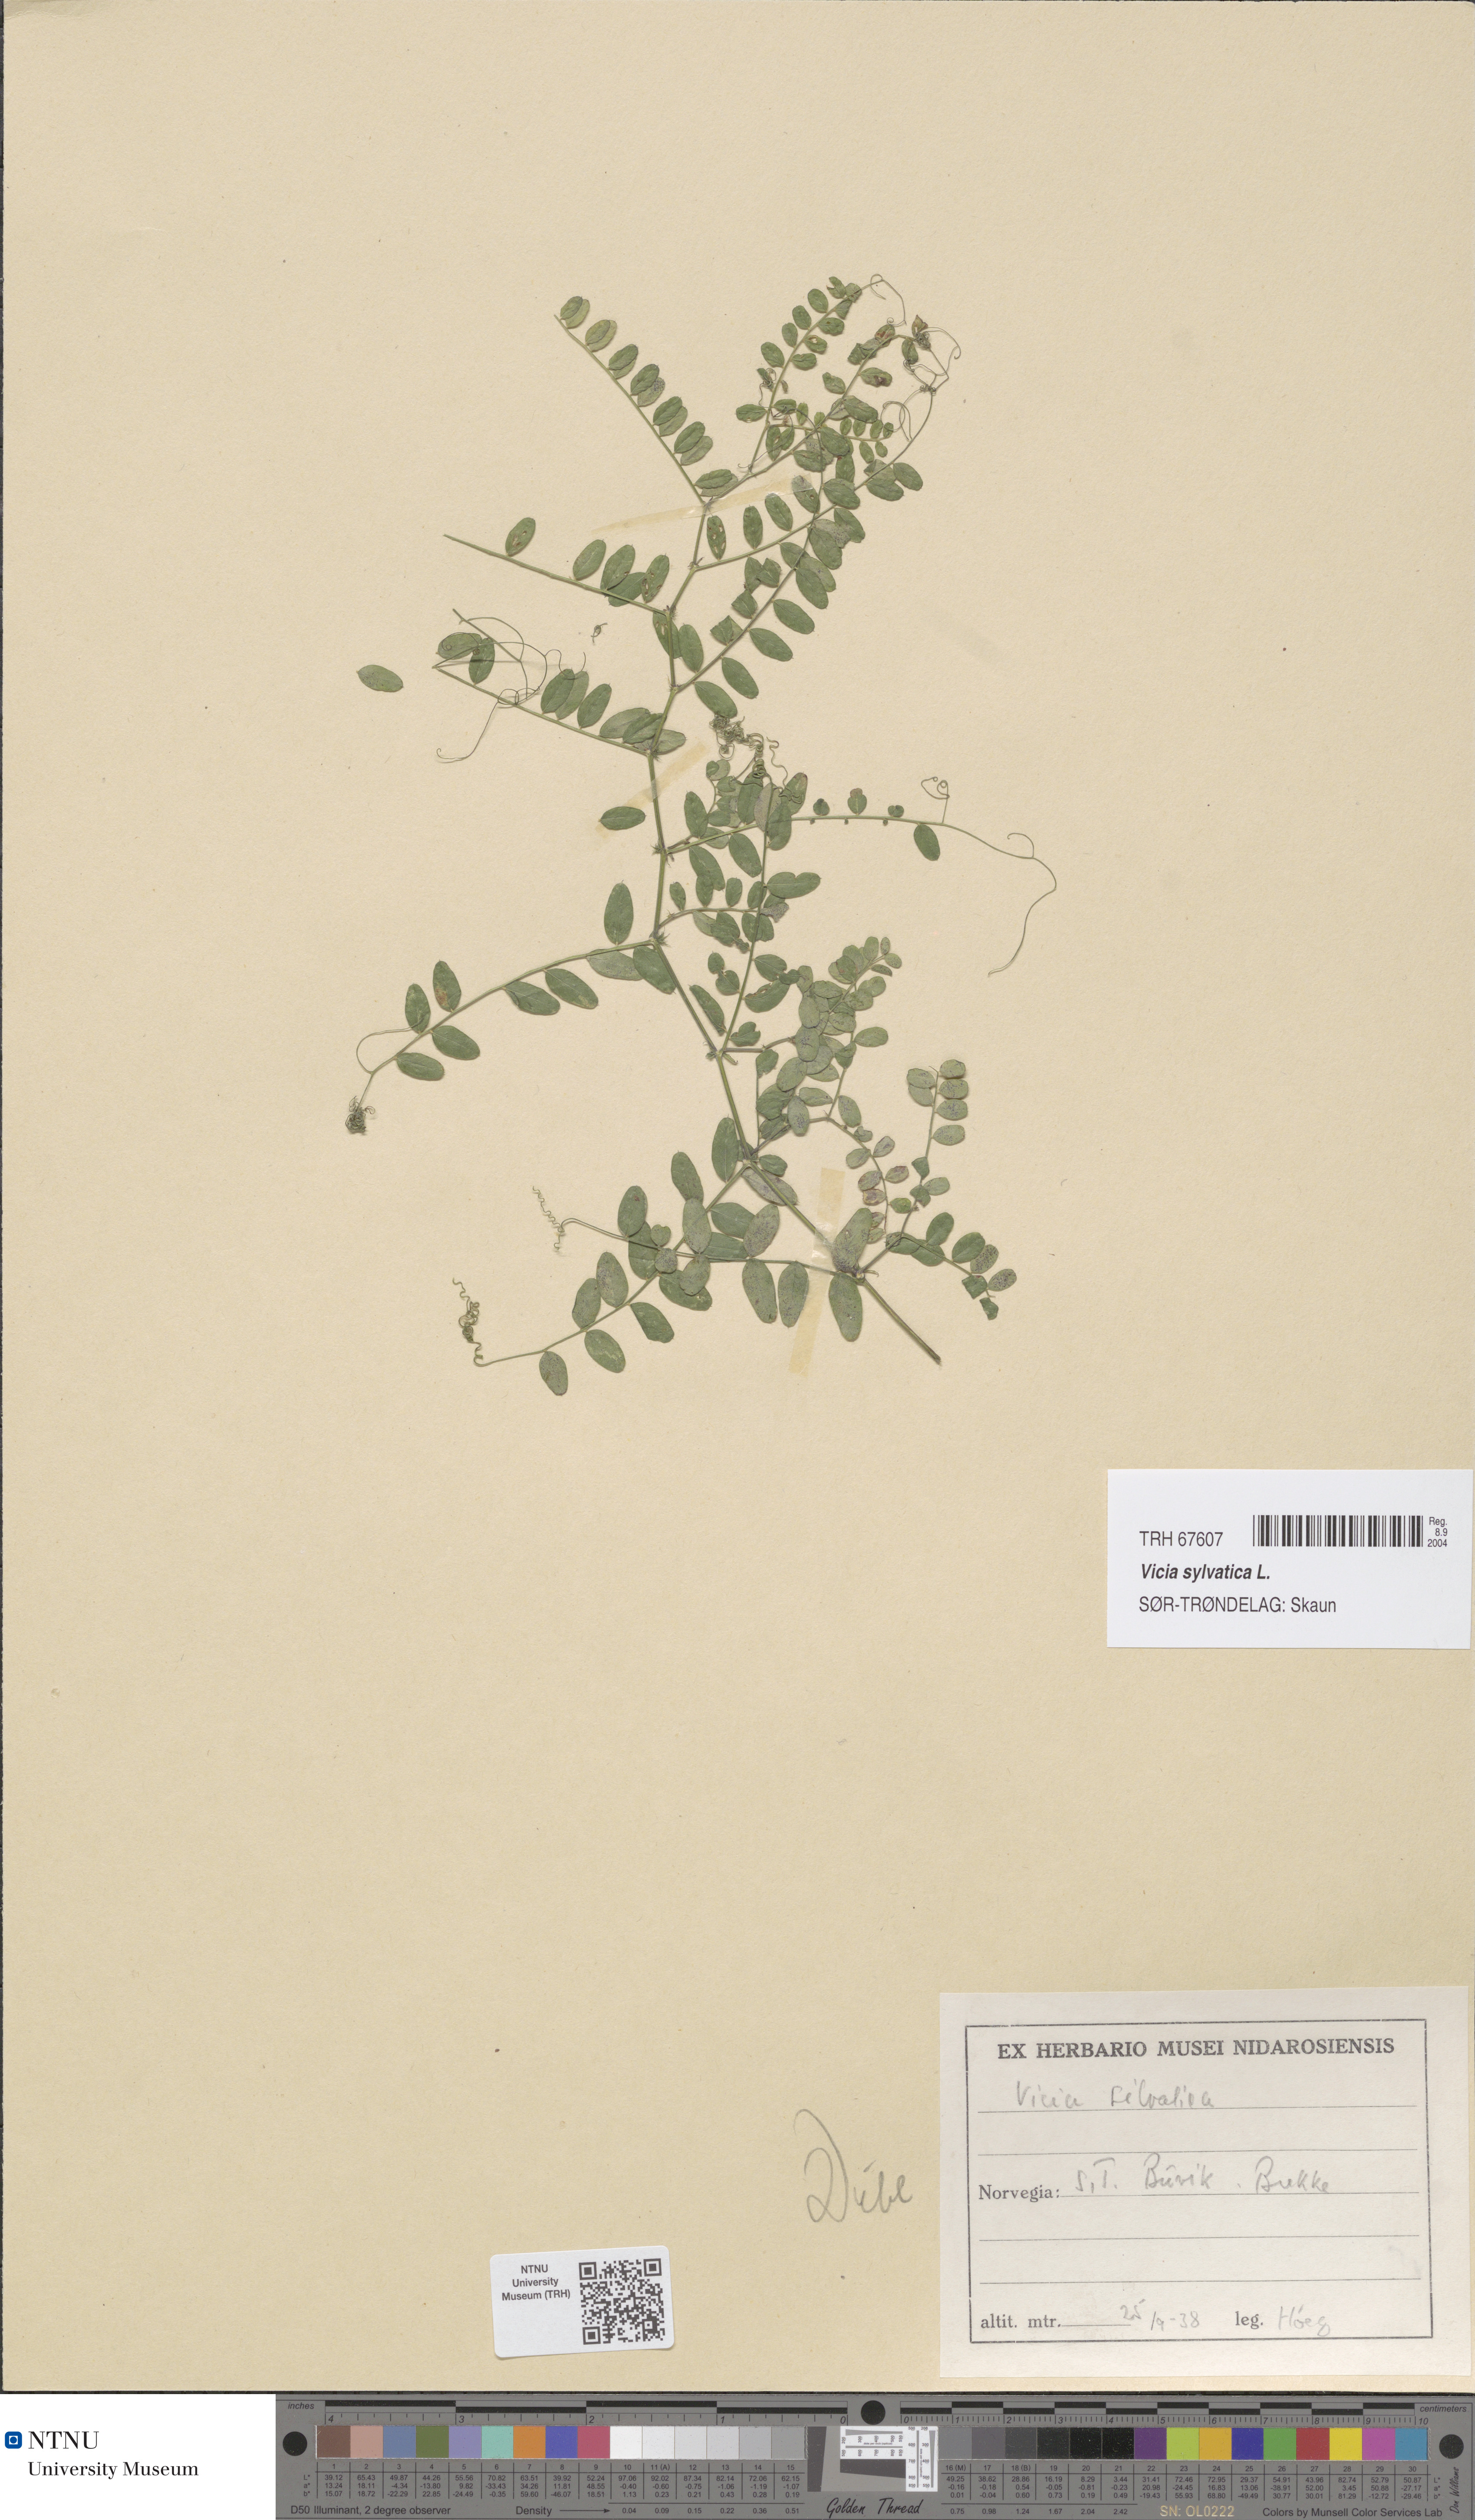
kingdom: Plantae
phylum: Tracheophyta
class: Magnoliopsida
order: Fabales
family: Fabaceae
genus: Vicia
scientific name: Vicia sylvatica
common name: Wood vetch
